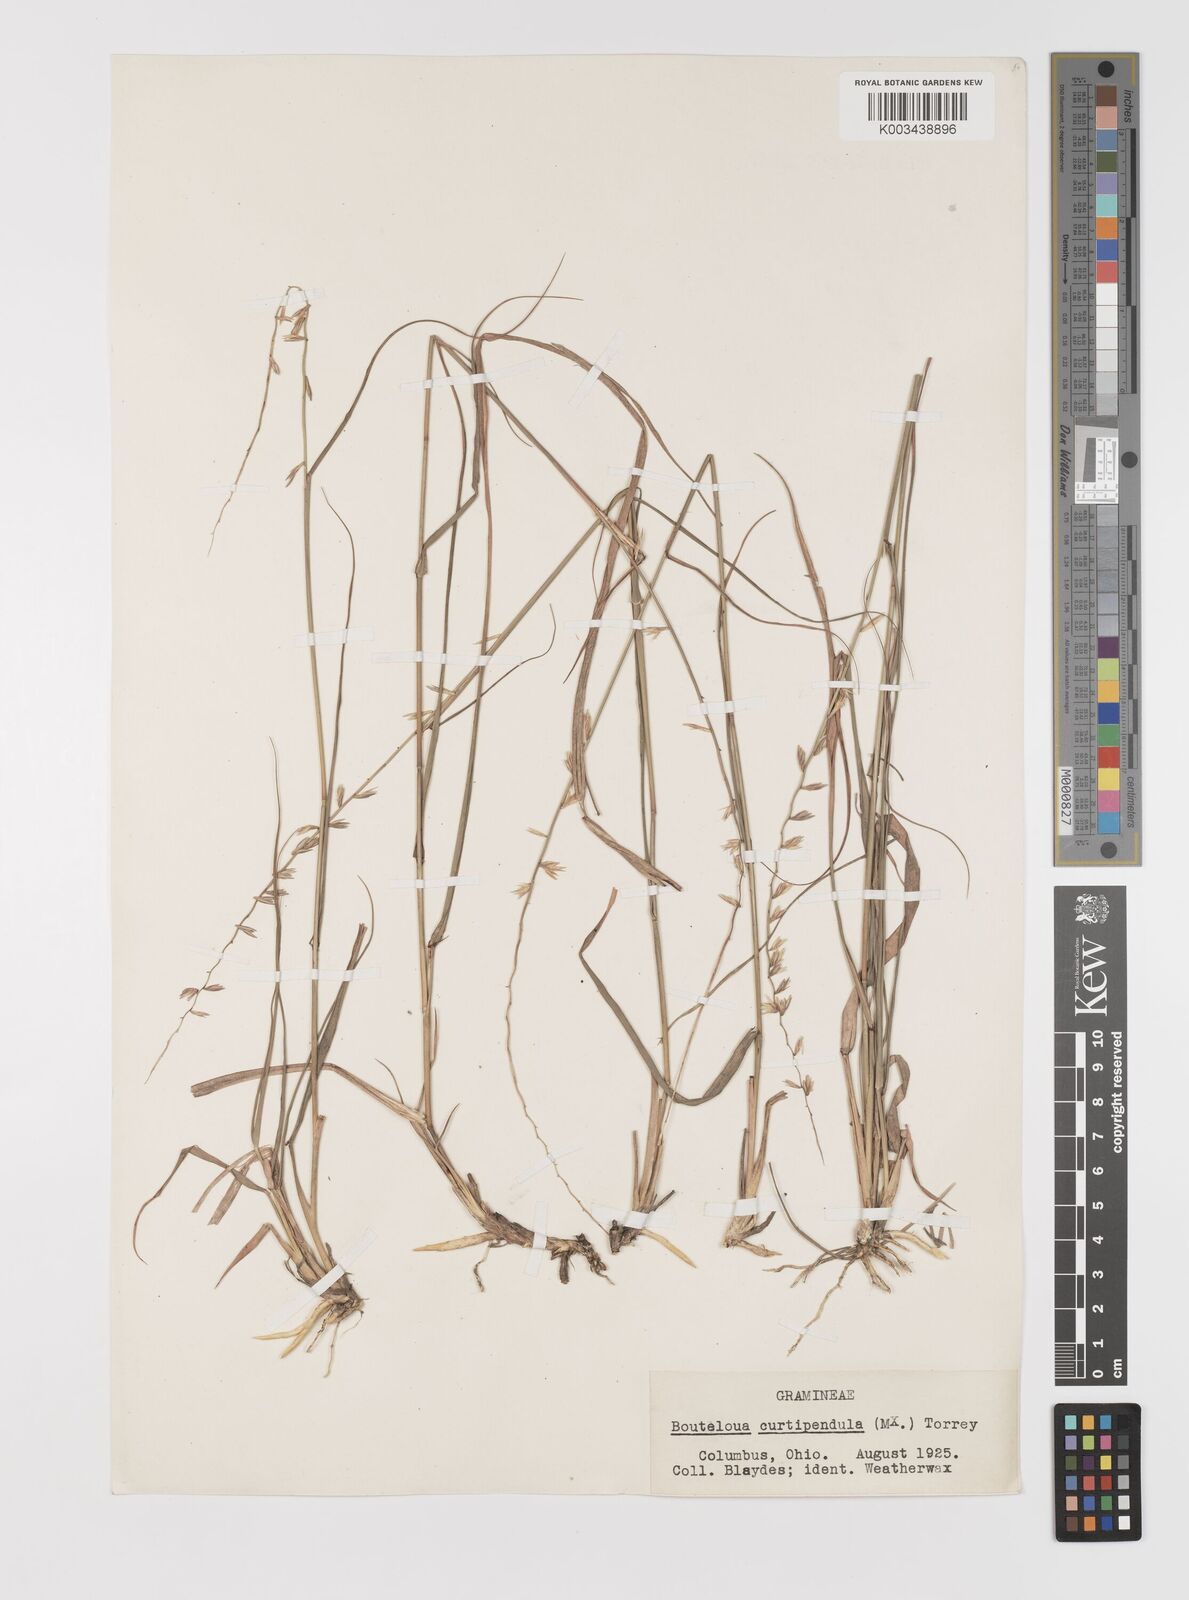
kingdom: Plantae
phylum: Tracheophyta
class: Liliopsida
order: Poales
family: Poaceae
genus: Bouteloua
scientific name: Bouteloua curtipendula
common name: Side-oats grama
